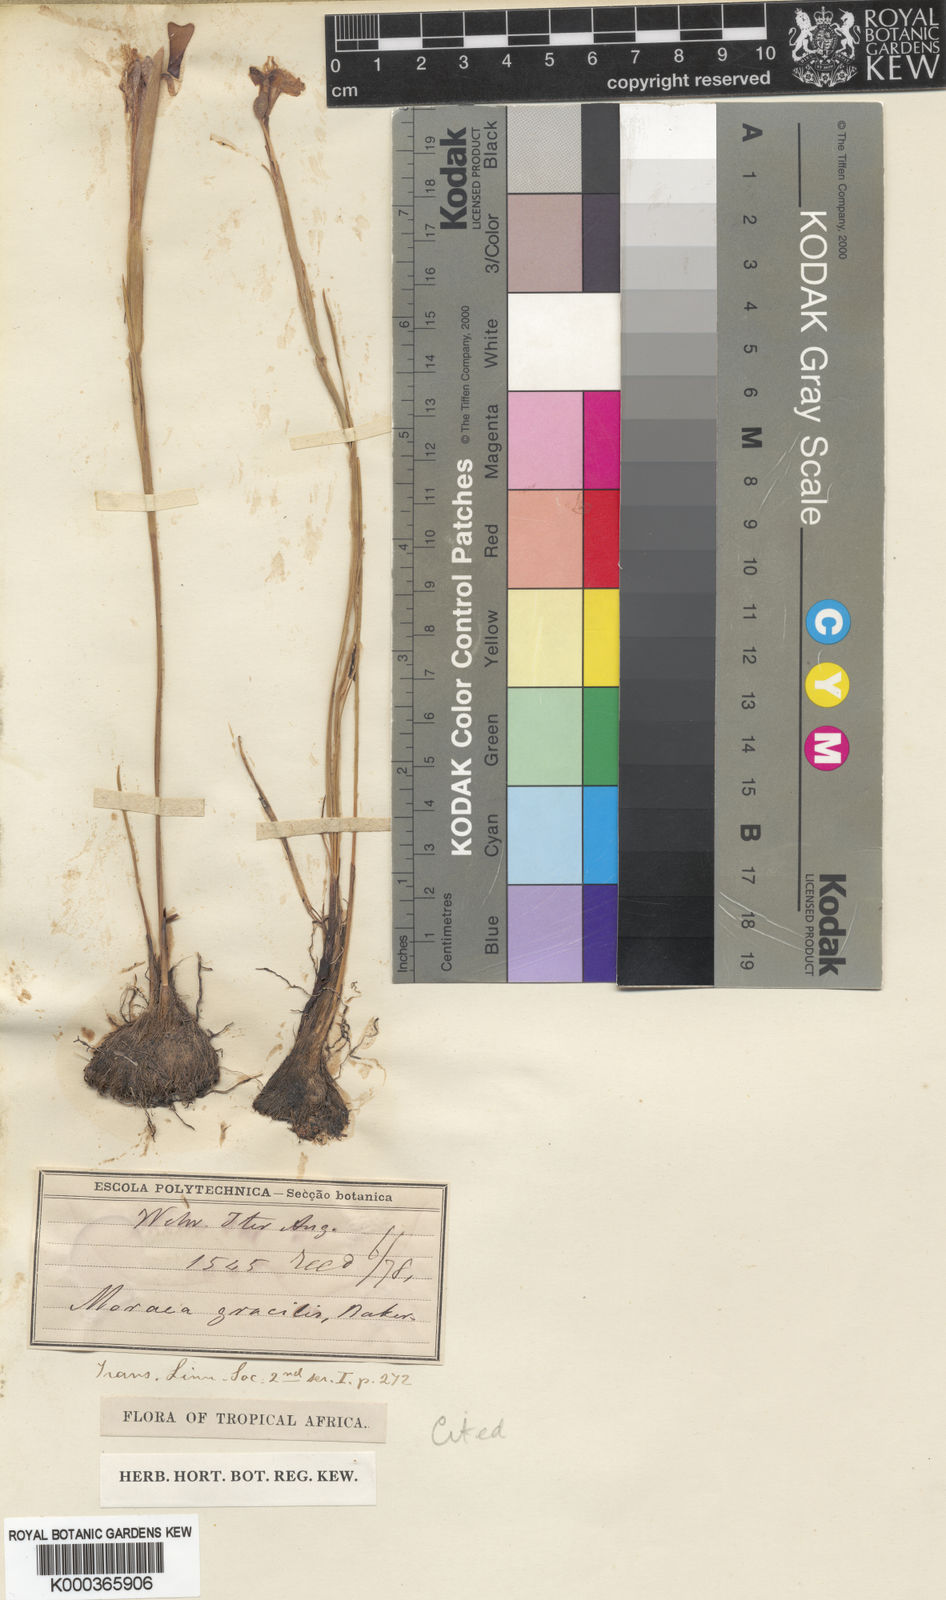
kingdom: Plantae
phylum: Tracheophyta
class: Liliopsida
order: Asparagales
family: Iridaceae
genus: Moraea
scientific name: Moraea clavata
